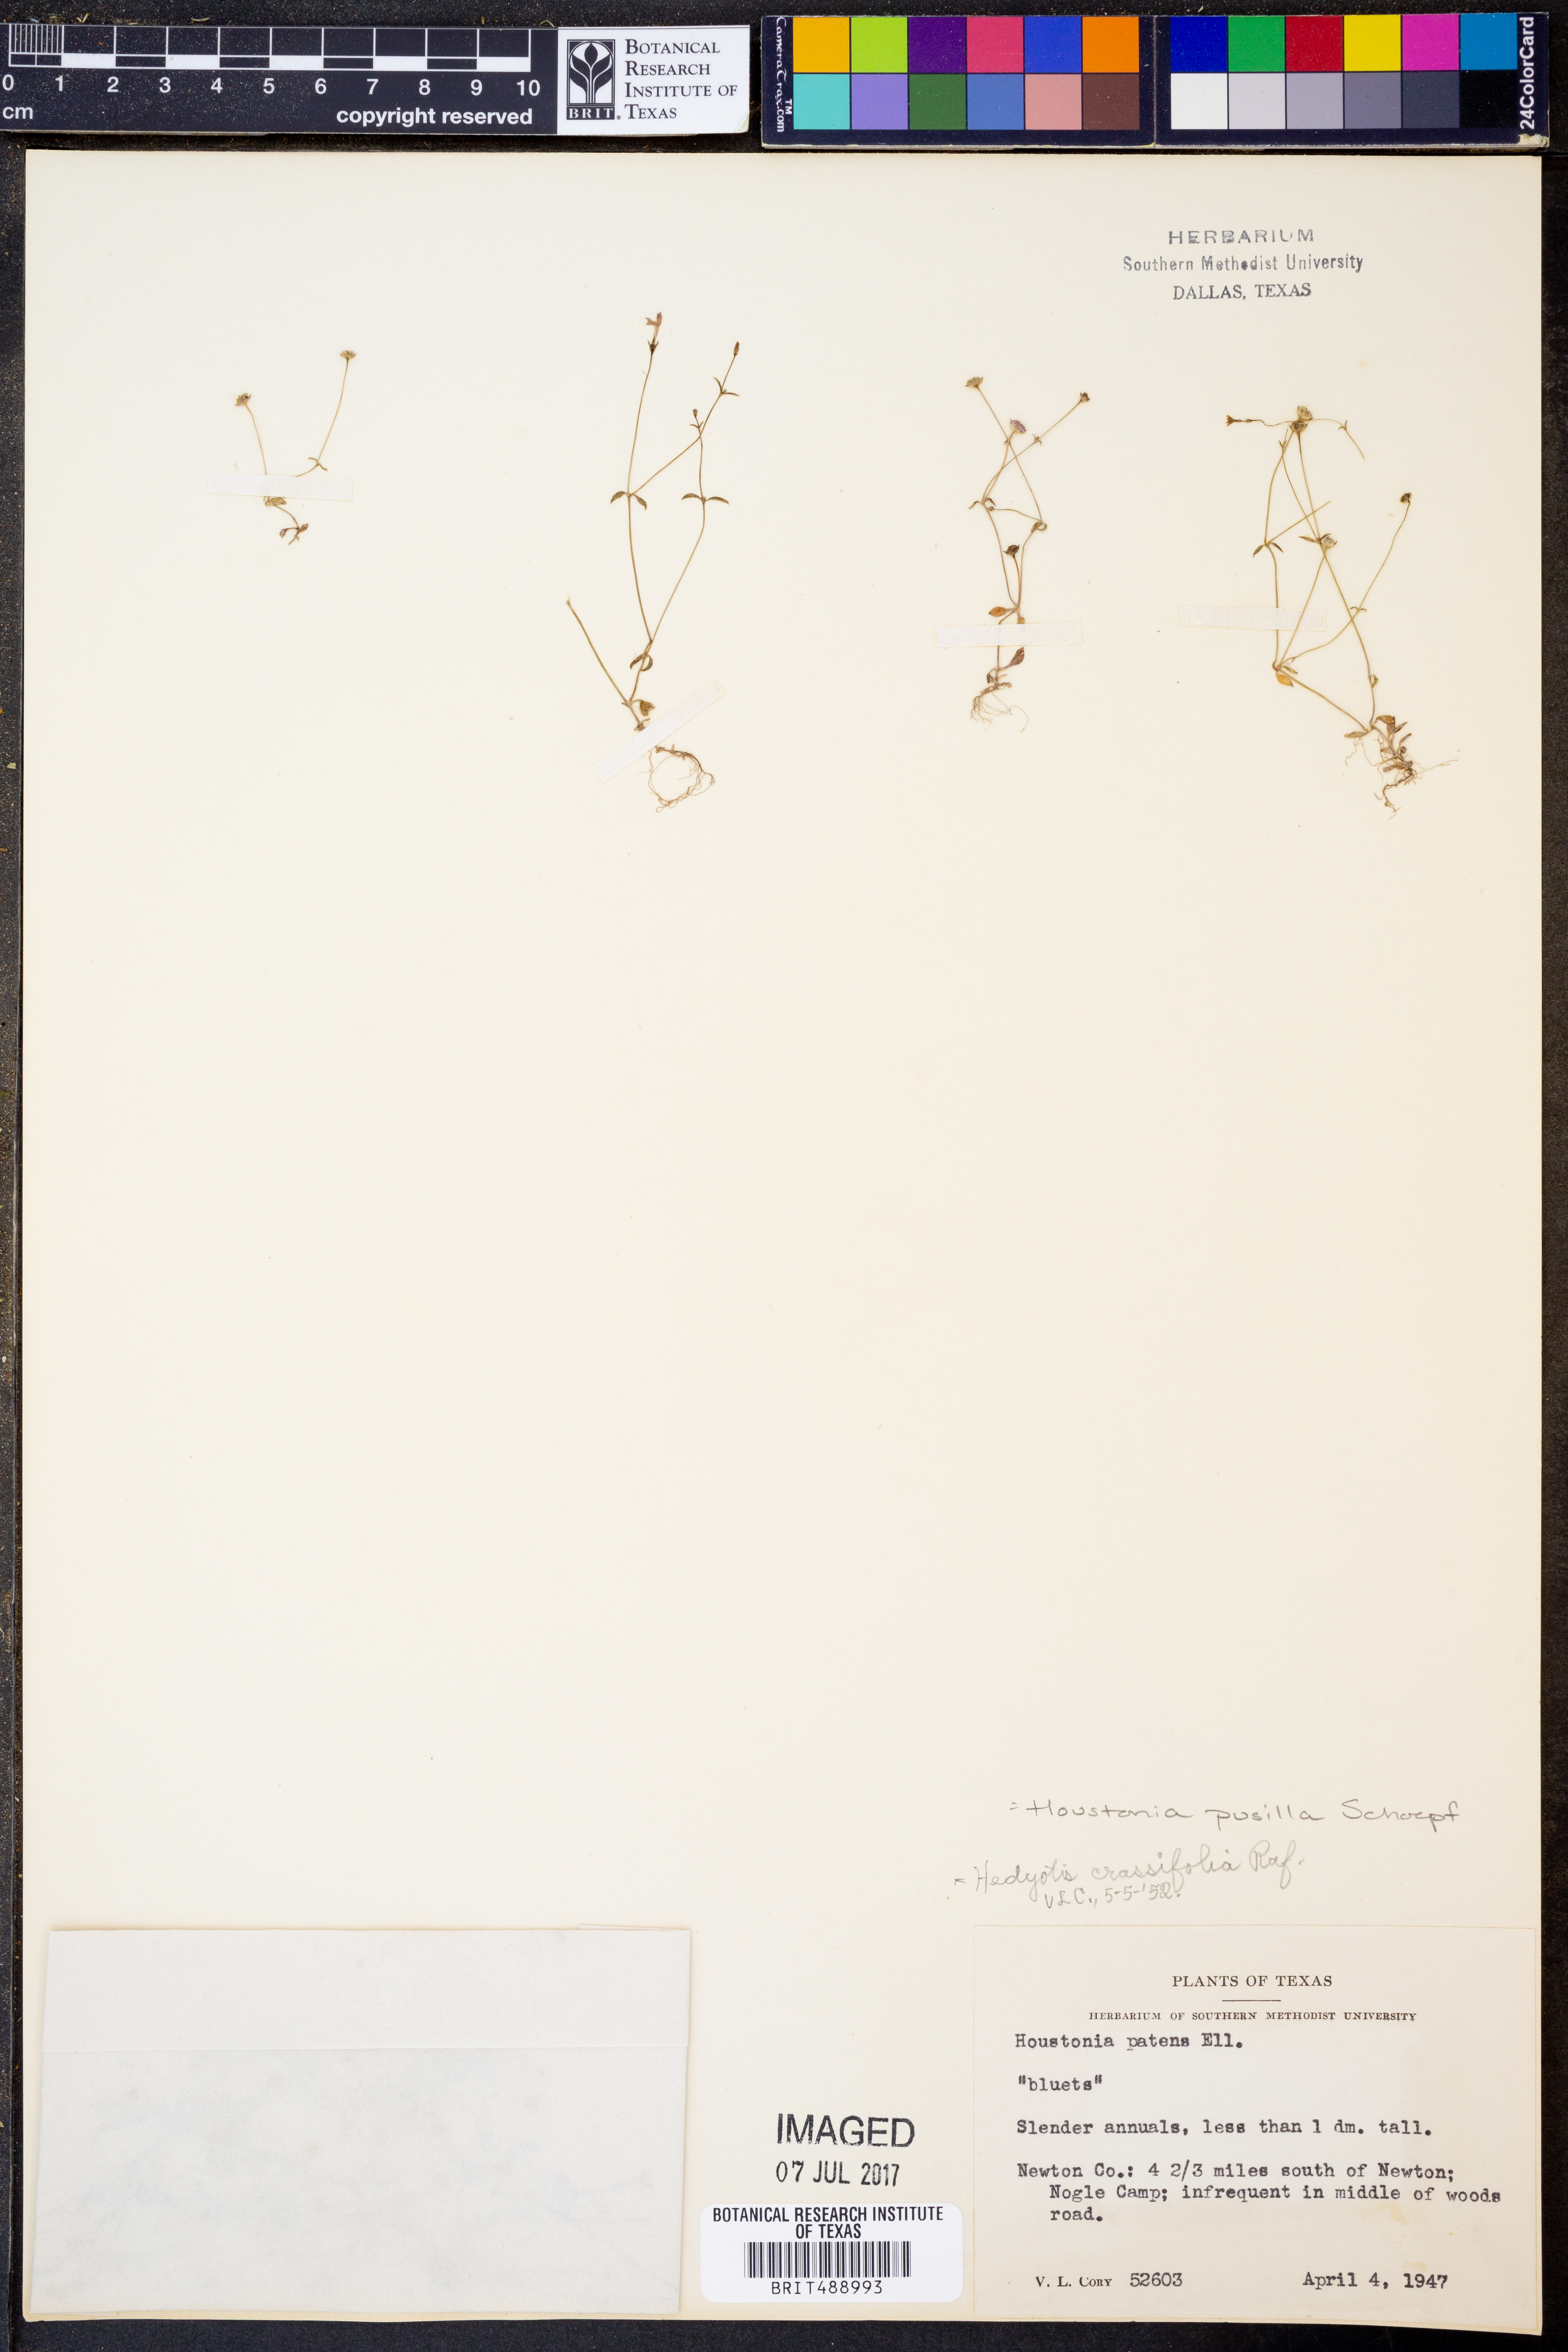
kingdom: Plantae
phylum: Tracheophyta
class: Magnoliopsida
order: Gentianales
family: Rubiaceae
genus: Houstonia
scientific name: Houstonia pusilla
